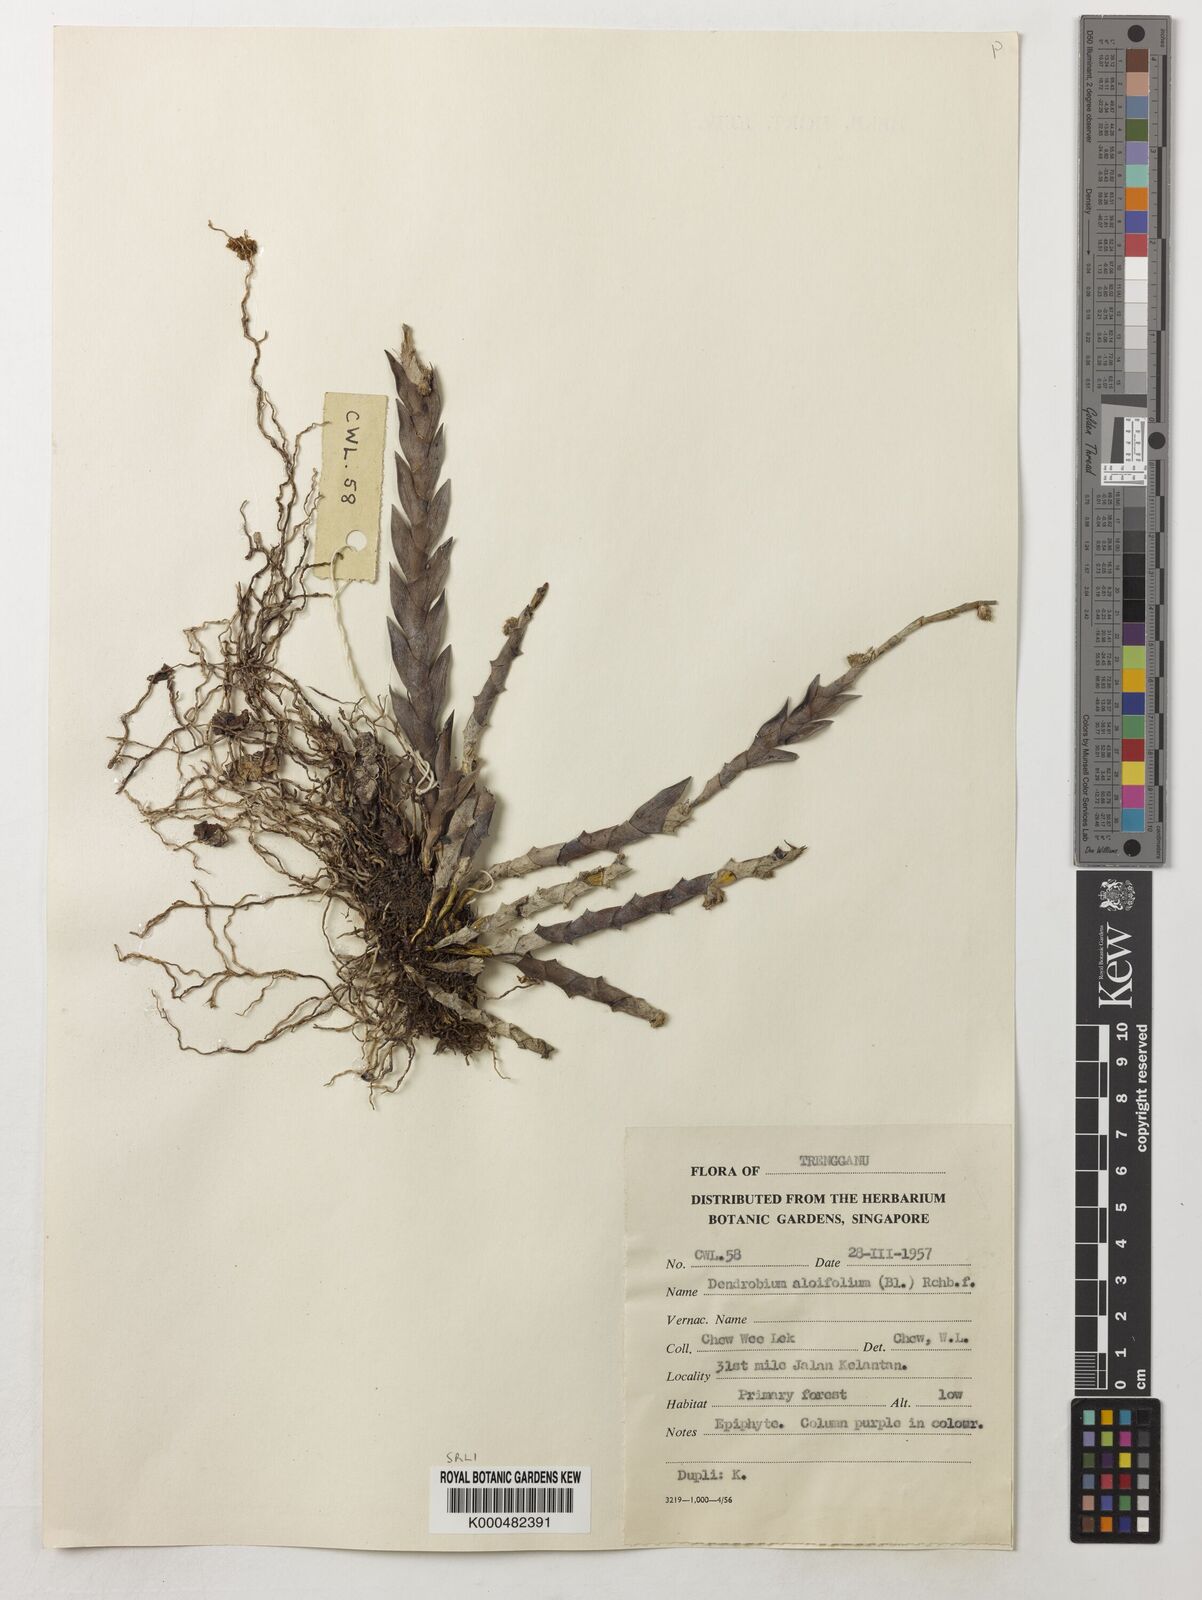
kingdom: Plantae
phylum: Tracheophyta
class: Liliopsida
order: Asparagales
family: Orchidaceae
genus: Dendrobium
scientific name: Dendrobium aloifolium
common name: Aloe-like dendrobium
